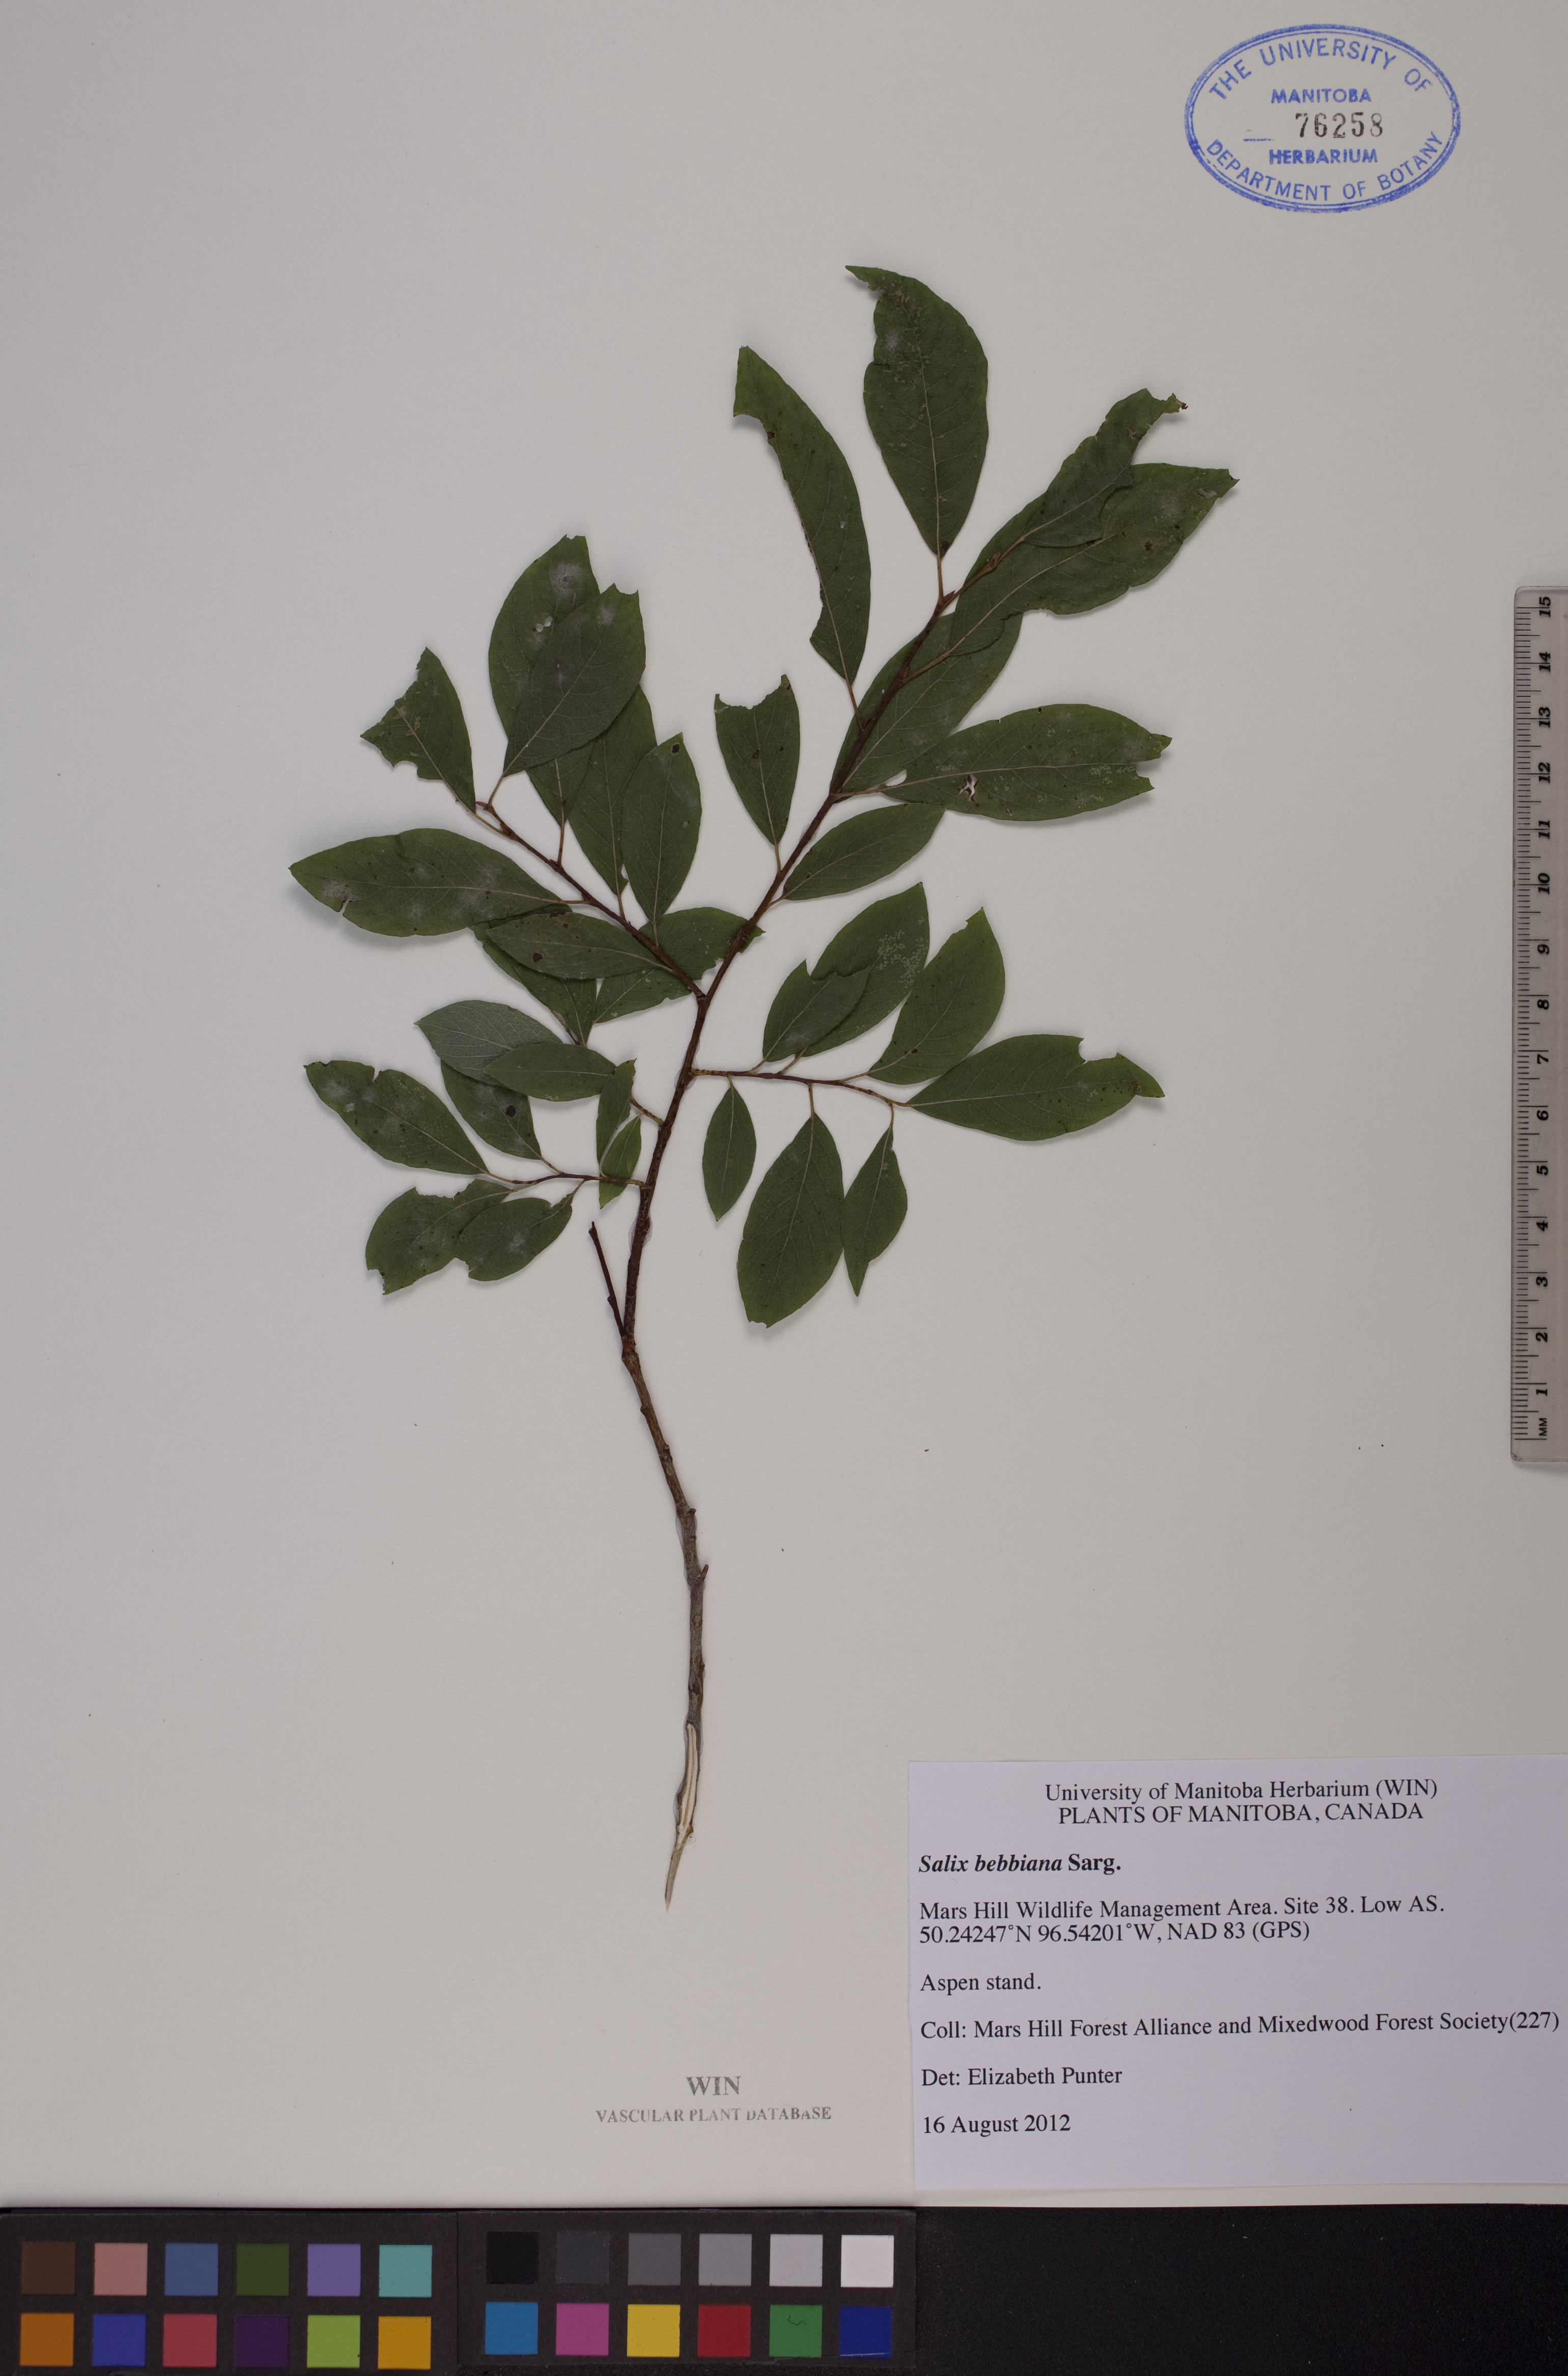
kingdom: Plantae
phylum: Tracheophyta
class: Magnoliopsida
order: Malpighiales
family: Salicaceae
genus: Salix
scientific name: Salix bebbiana
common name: Bebb's willow
